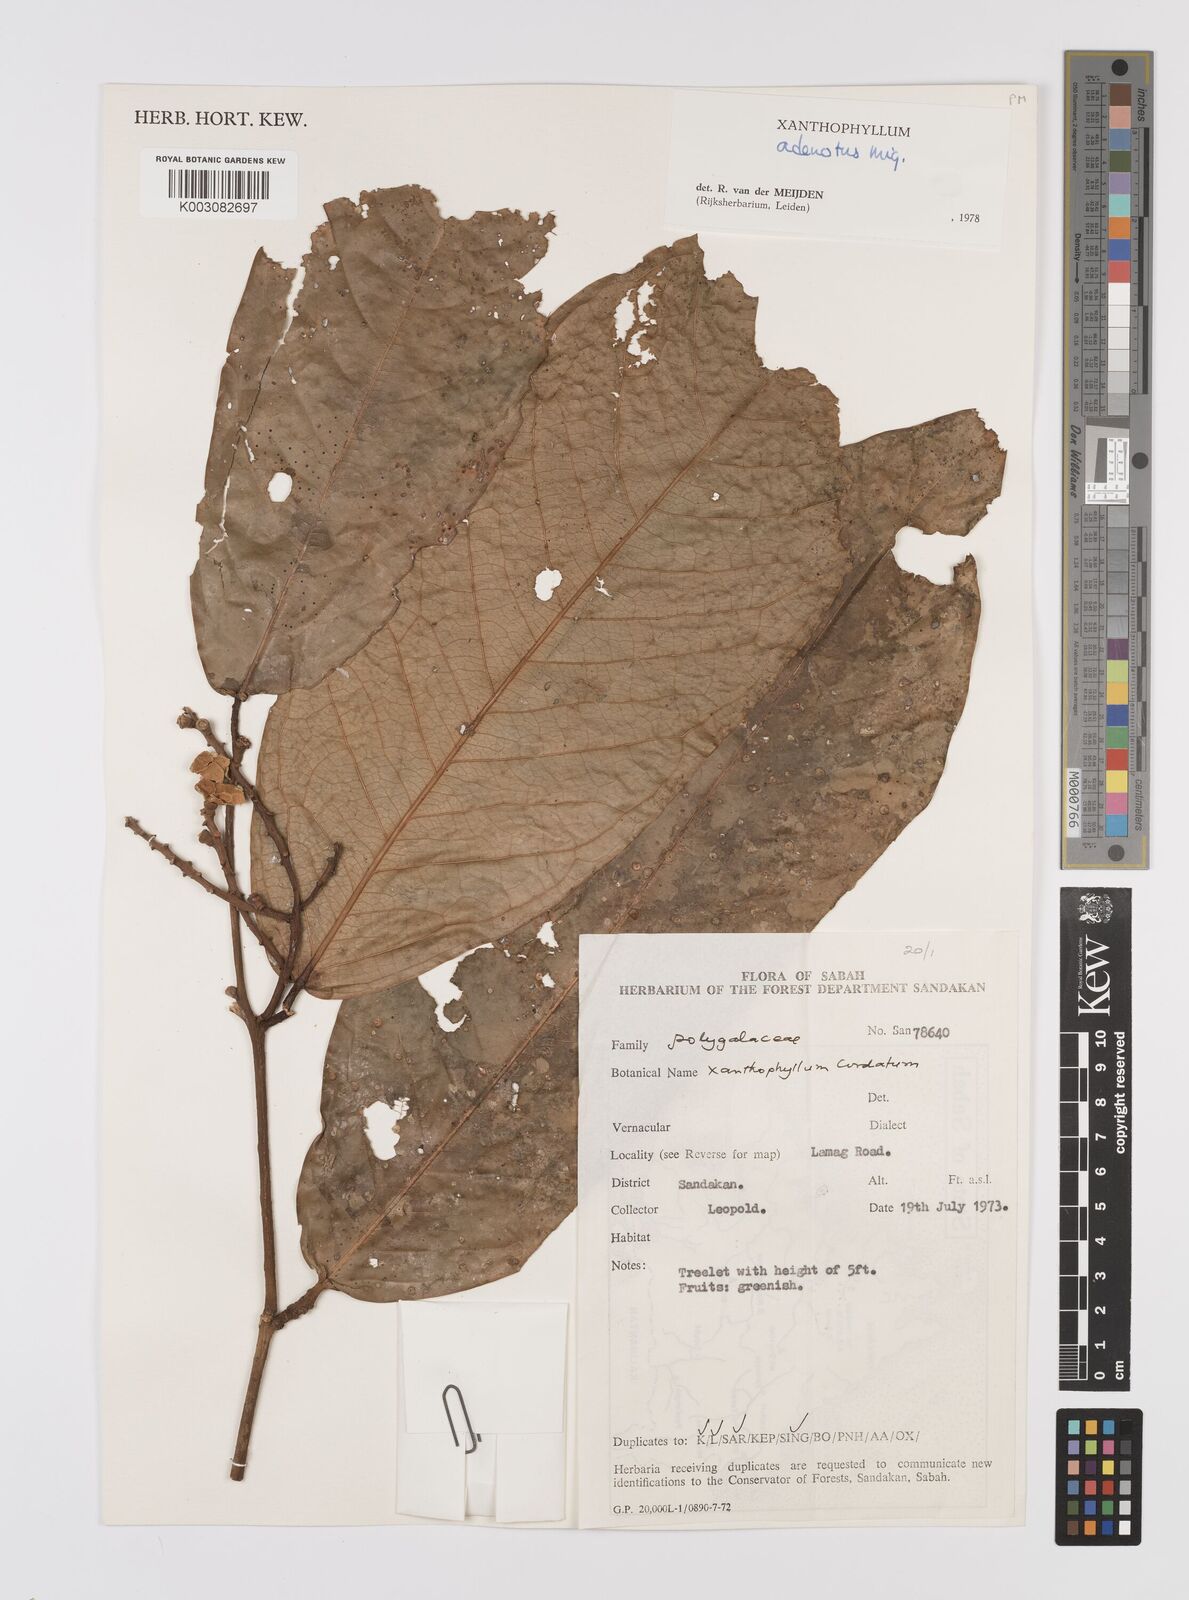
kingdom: Plantae
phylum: Tracheophyta
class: Magnoliopsida
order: Fabales
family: Polygalaceae
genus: Xanthophyllum
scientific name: Xanthophyllum adenotus
